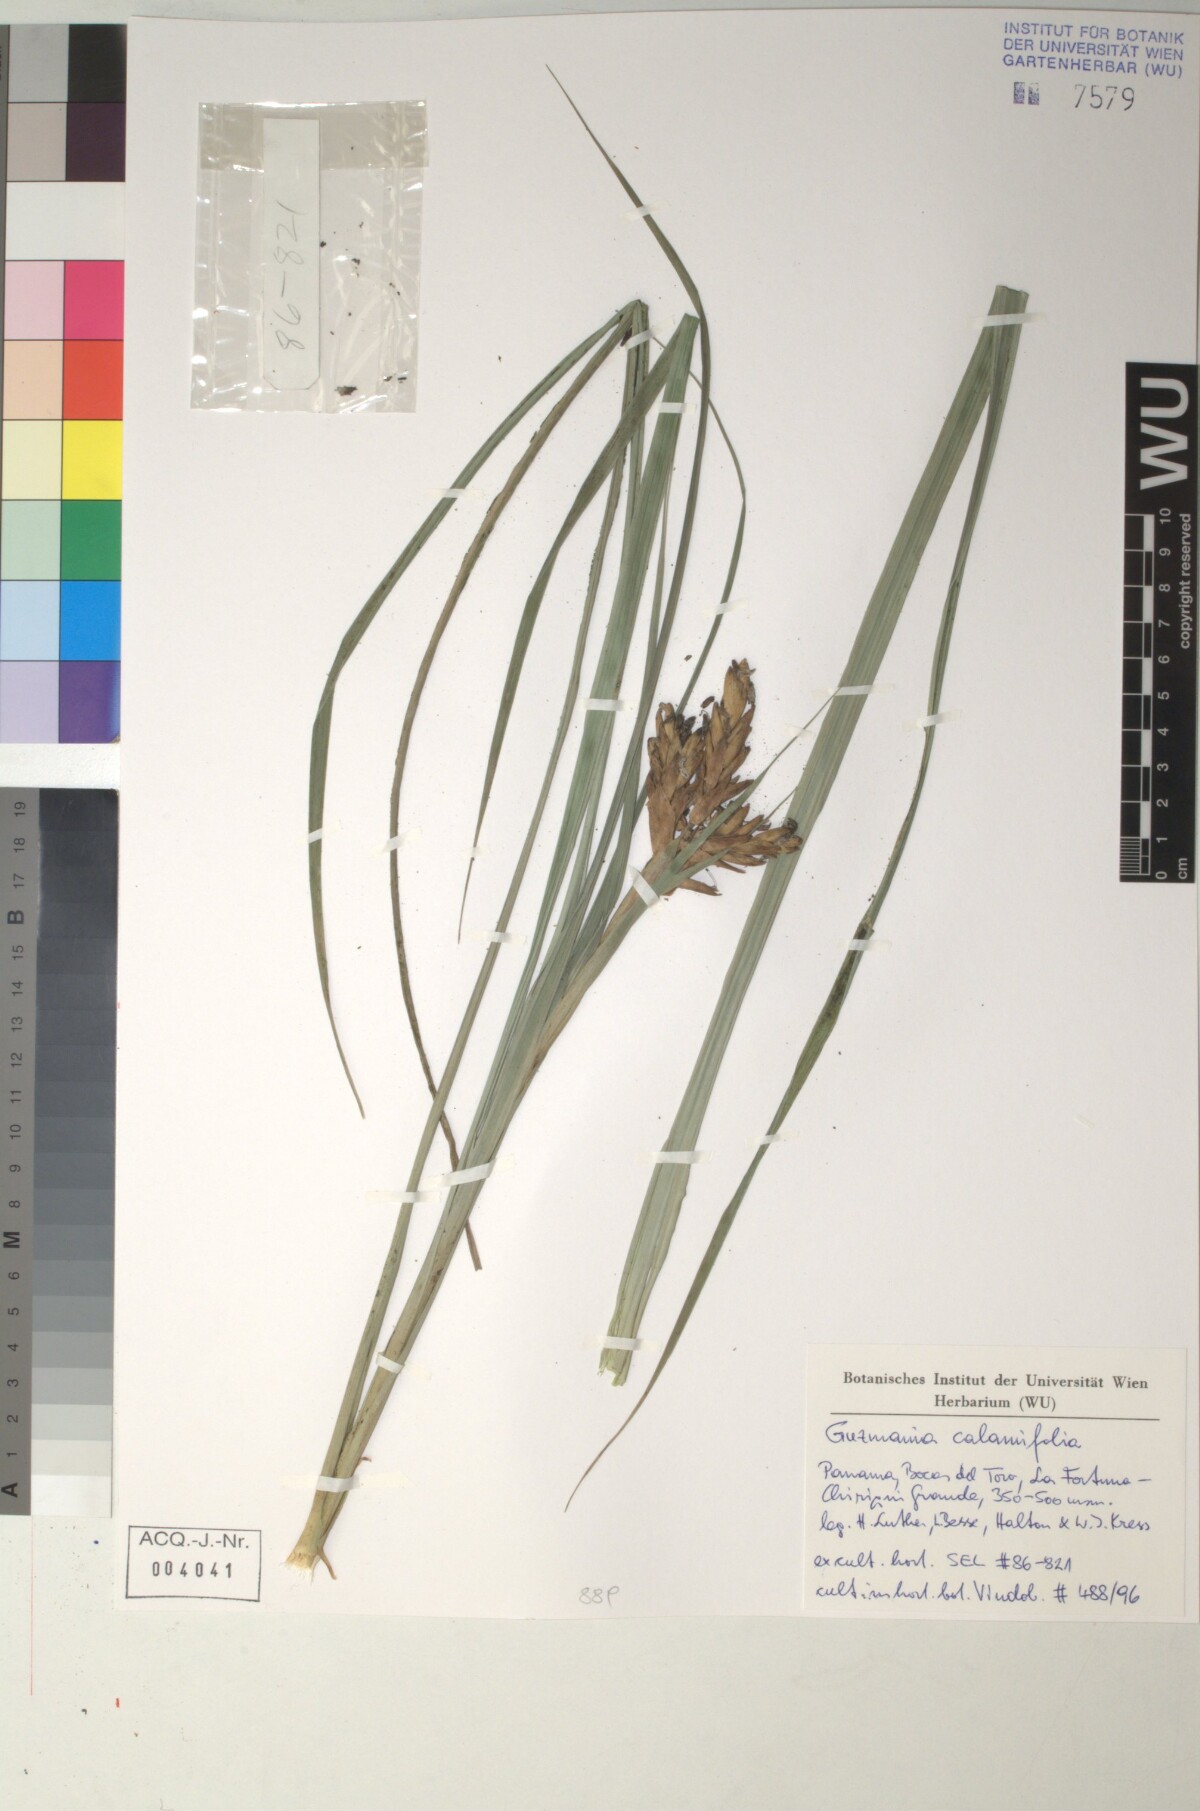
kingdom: Plantae
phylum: Tracheophyta
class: Liliopsida
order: Poales
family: Bromeliaceae
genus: Guzmania
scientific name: Guzmania
